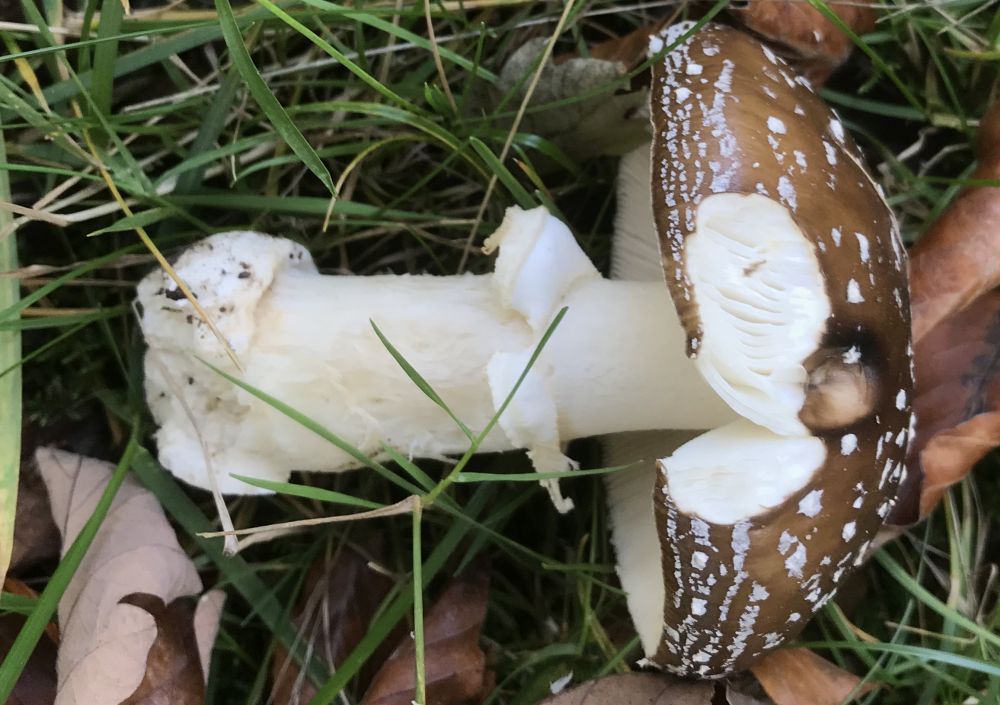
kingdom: Fungi
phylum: Basidiomycota
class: Agaricomycetes
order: Agaricales
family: Amanitaceae
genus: Amanita
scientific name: Amanita pantherina
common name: panter-fluesvamp
